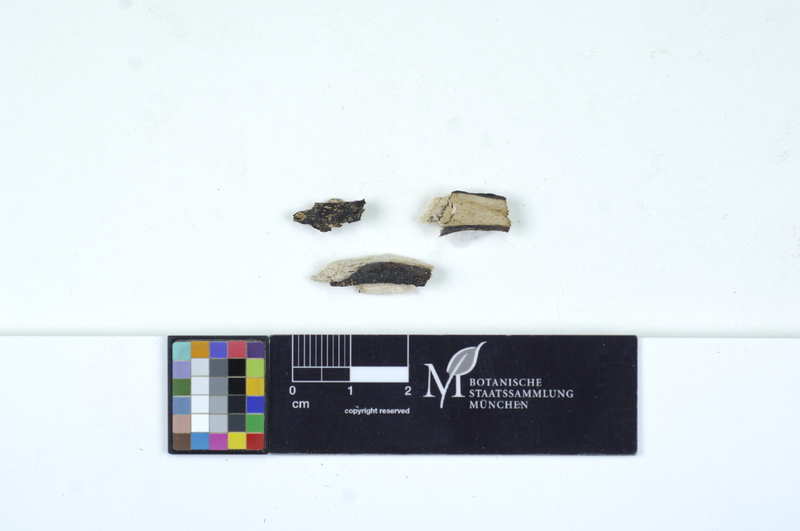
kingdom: Fungi
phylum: Basidiomycota
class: Agaricomycetes
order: Auriculariales
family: Auriculariaceae
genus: Exidiopsis
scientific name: Exidiopsis galzinii
